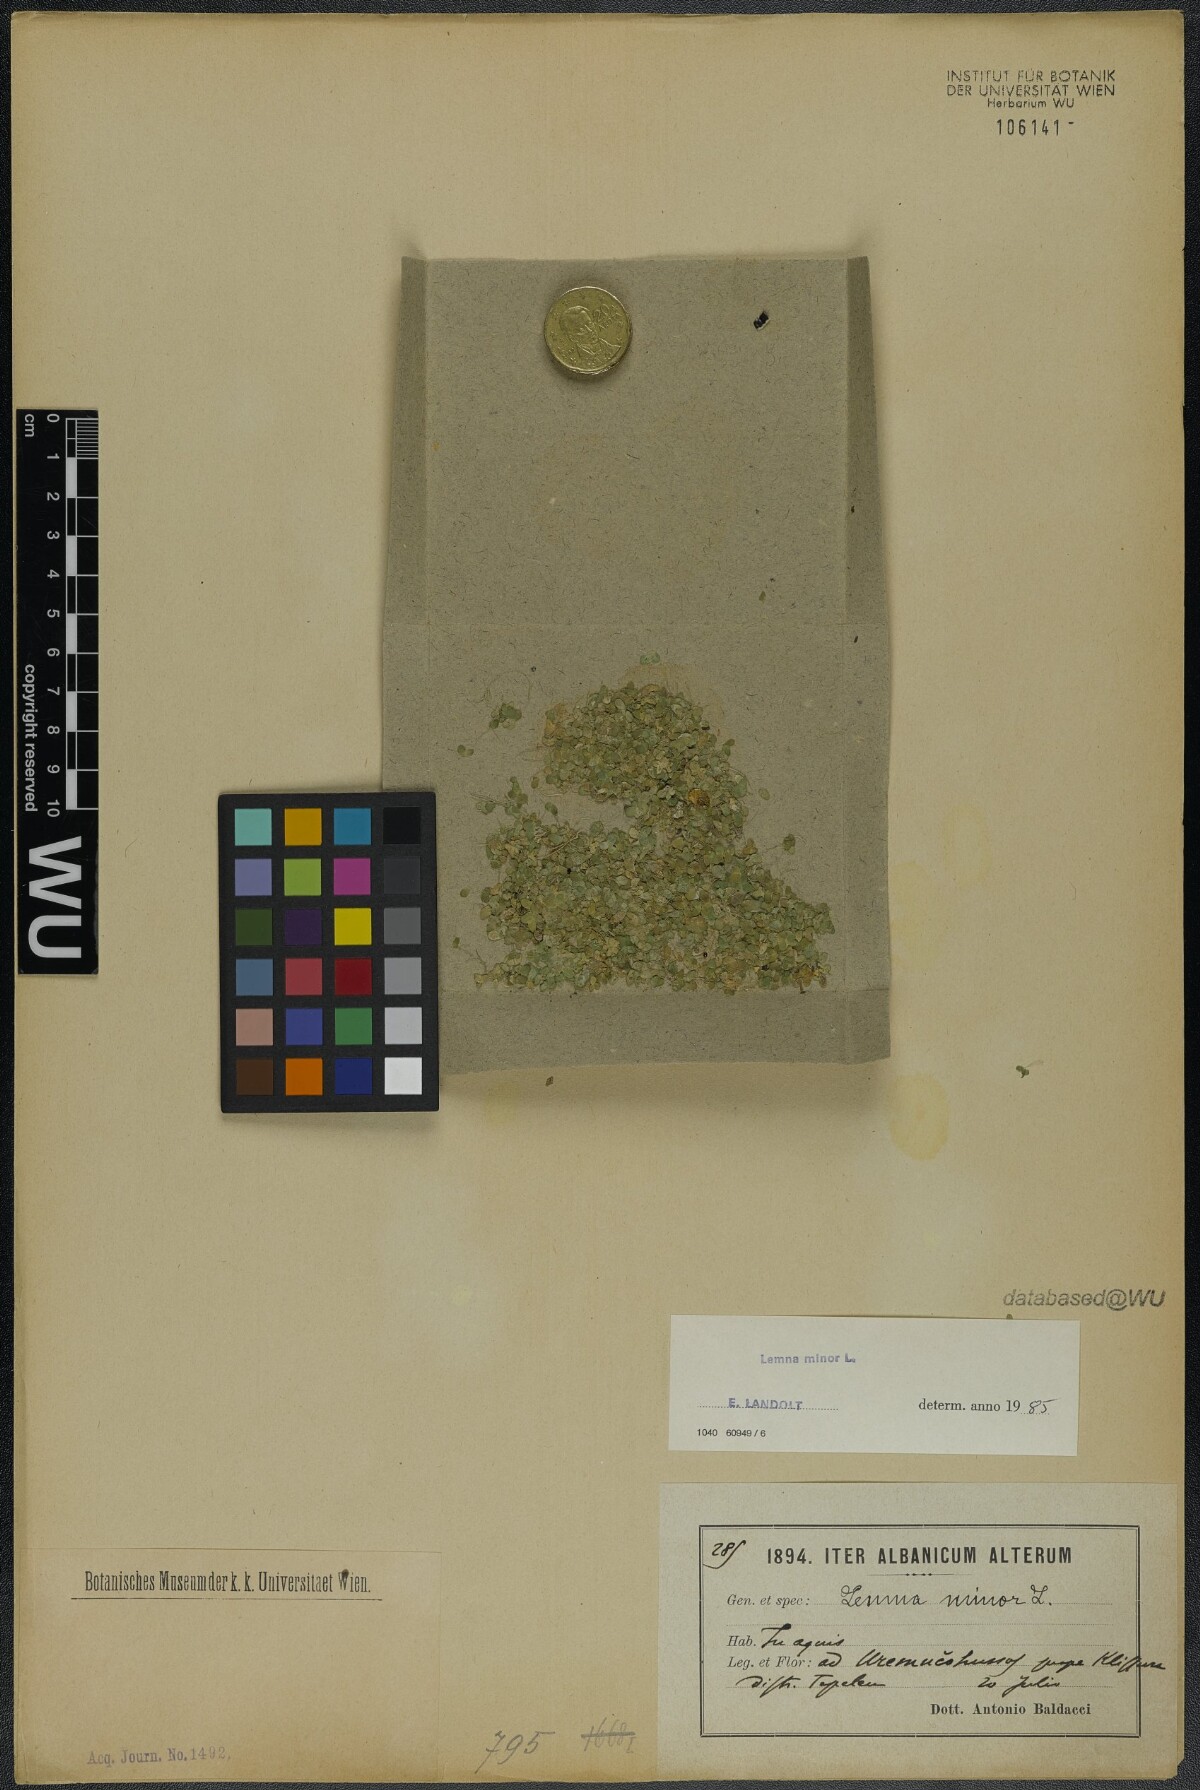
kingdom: Plantae
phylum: Tracheophyta
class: Liliopsida
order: Alismatales
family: Araceae
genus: Lemna
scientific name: Lemna minor
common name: Common duckweed
